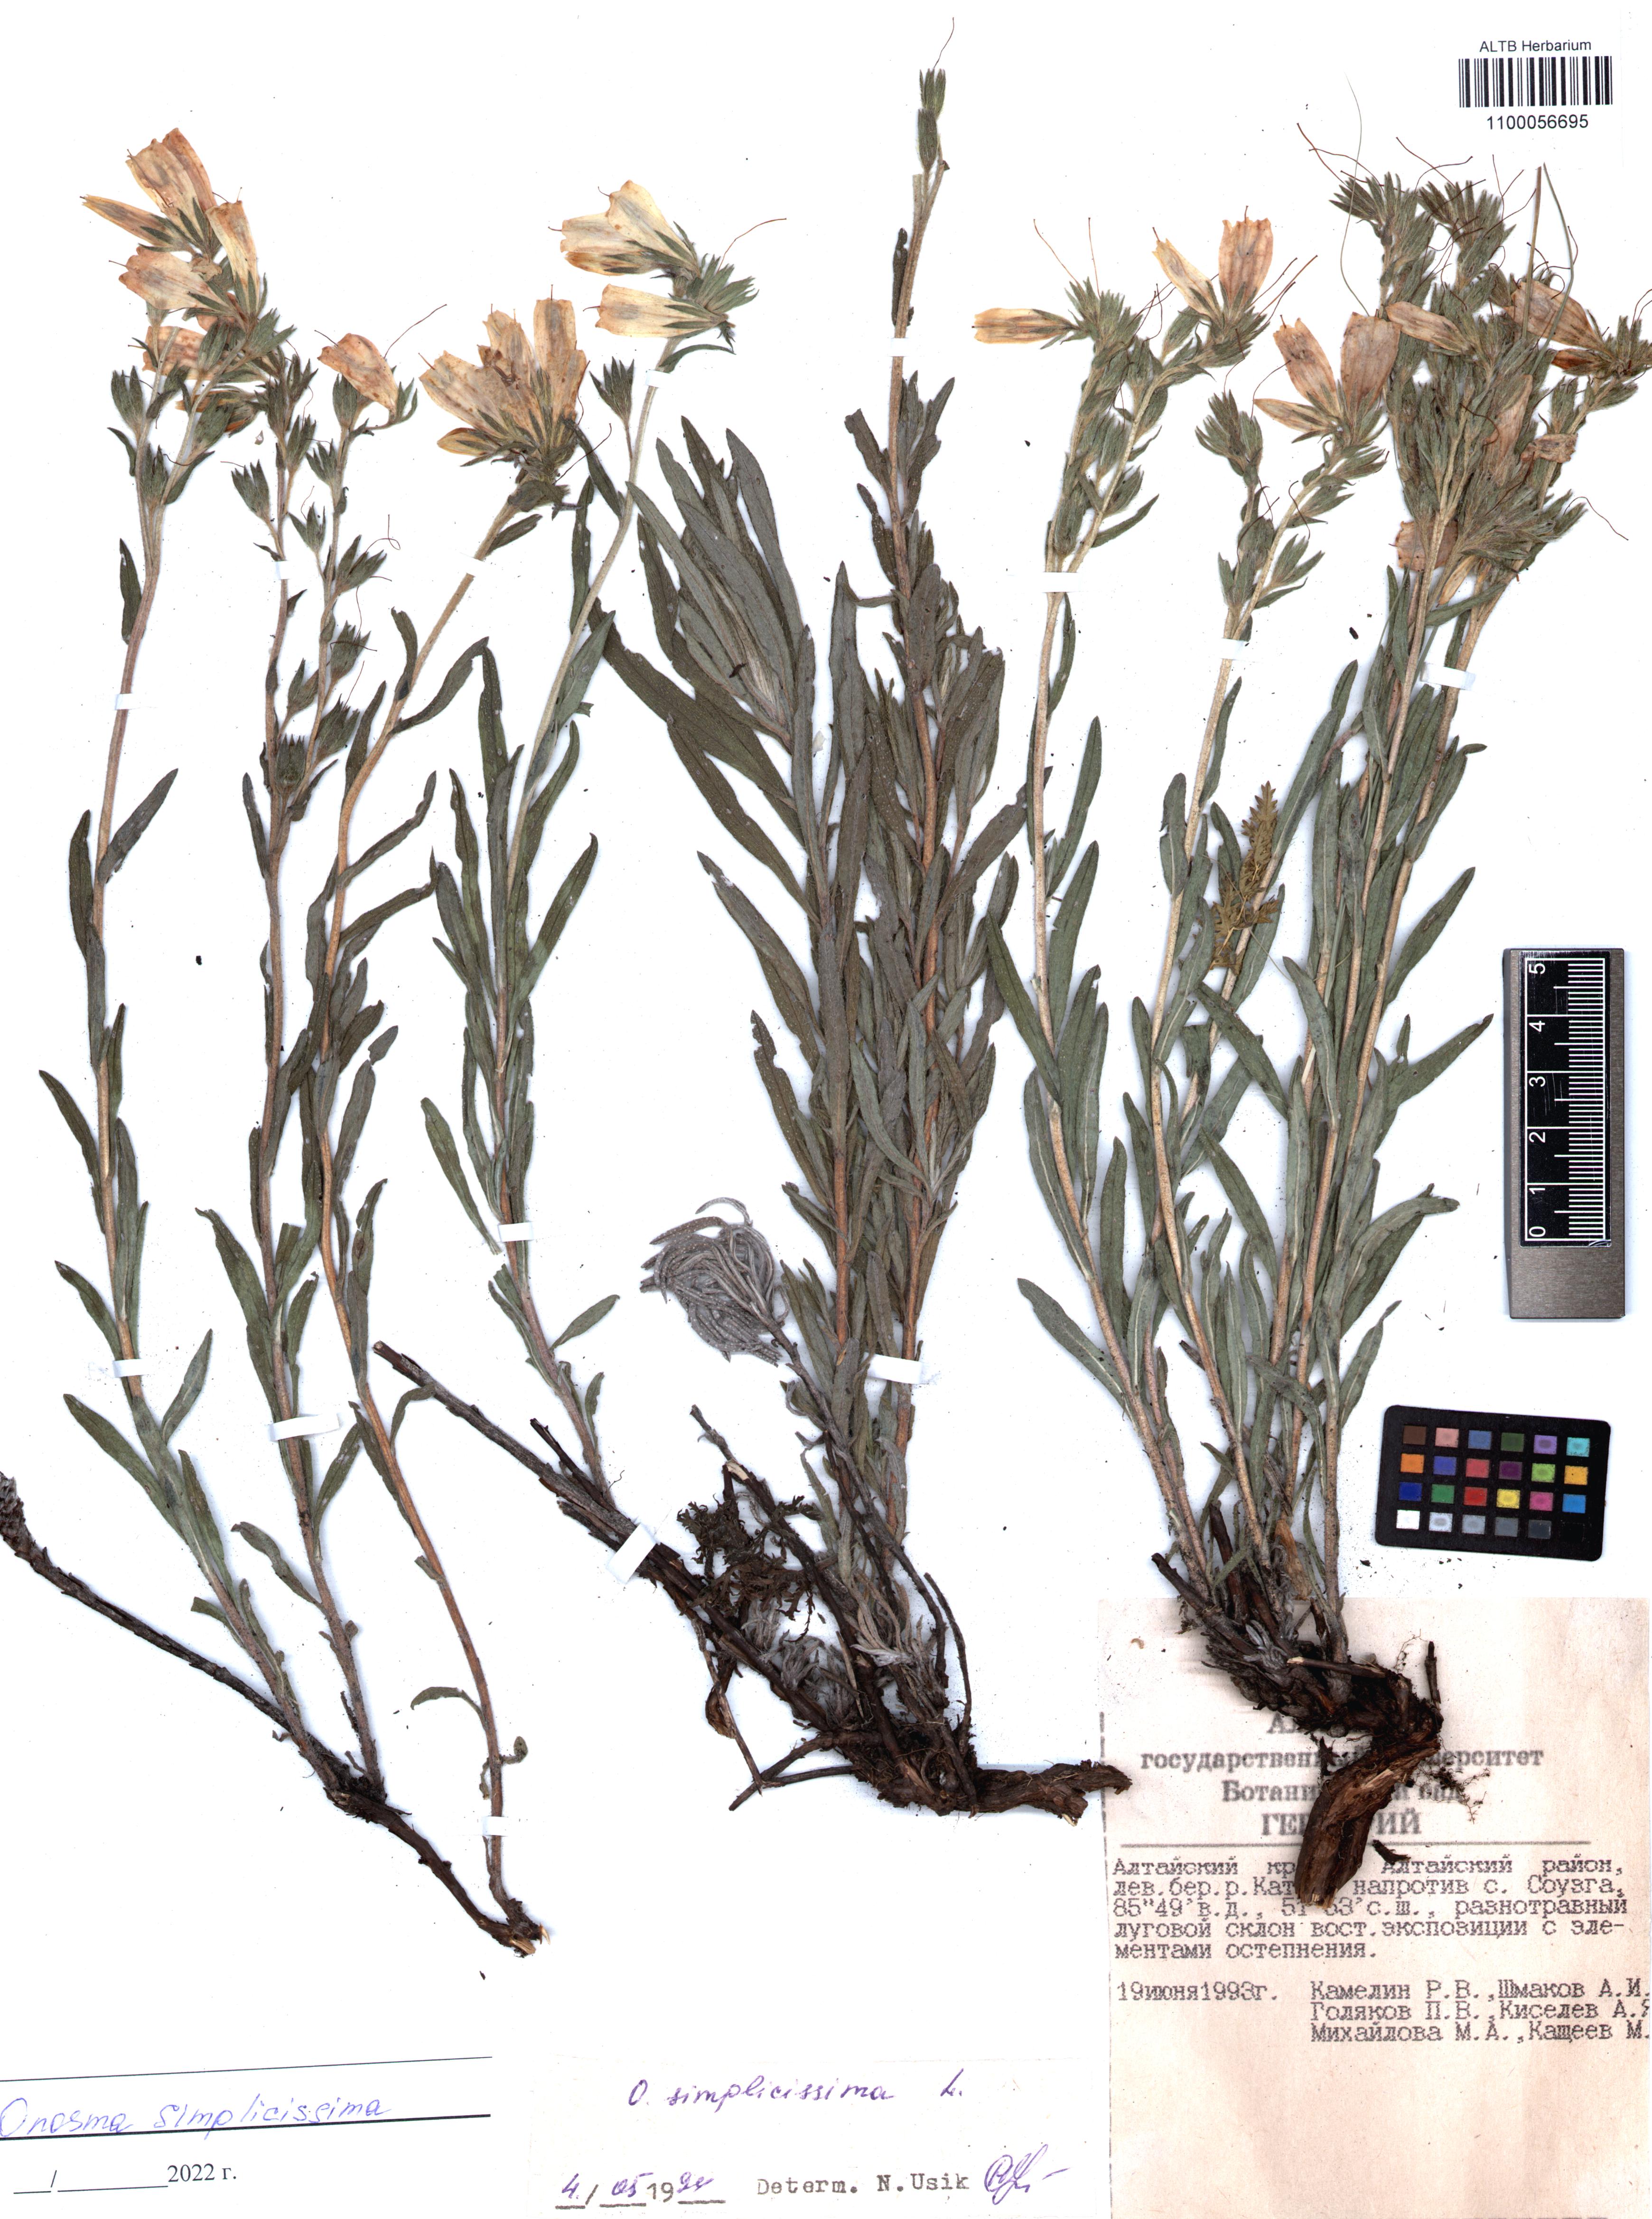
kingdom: Plantae
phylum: Tracheophyta
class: Magnoliopsida
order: Boraginales
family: Boraginaceae
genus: Onosma
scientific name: Onosma simplicissima
